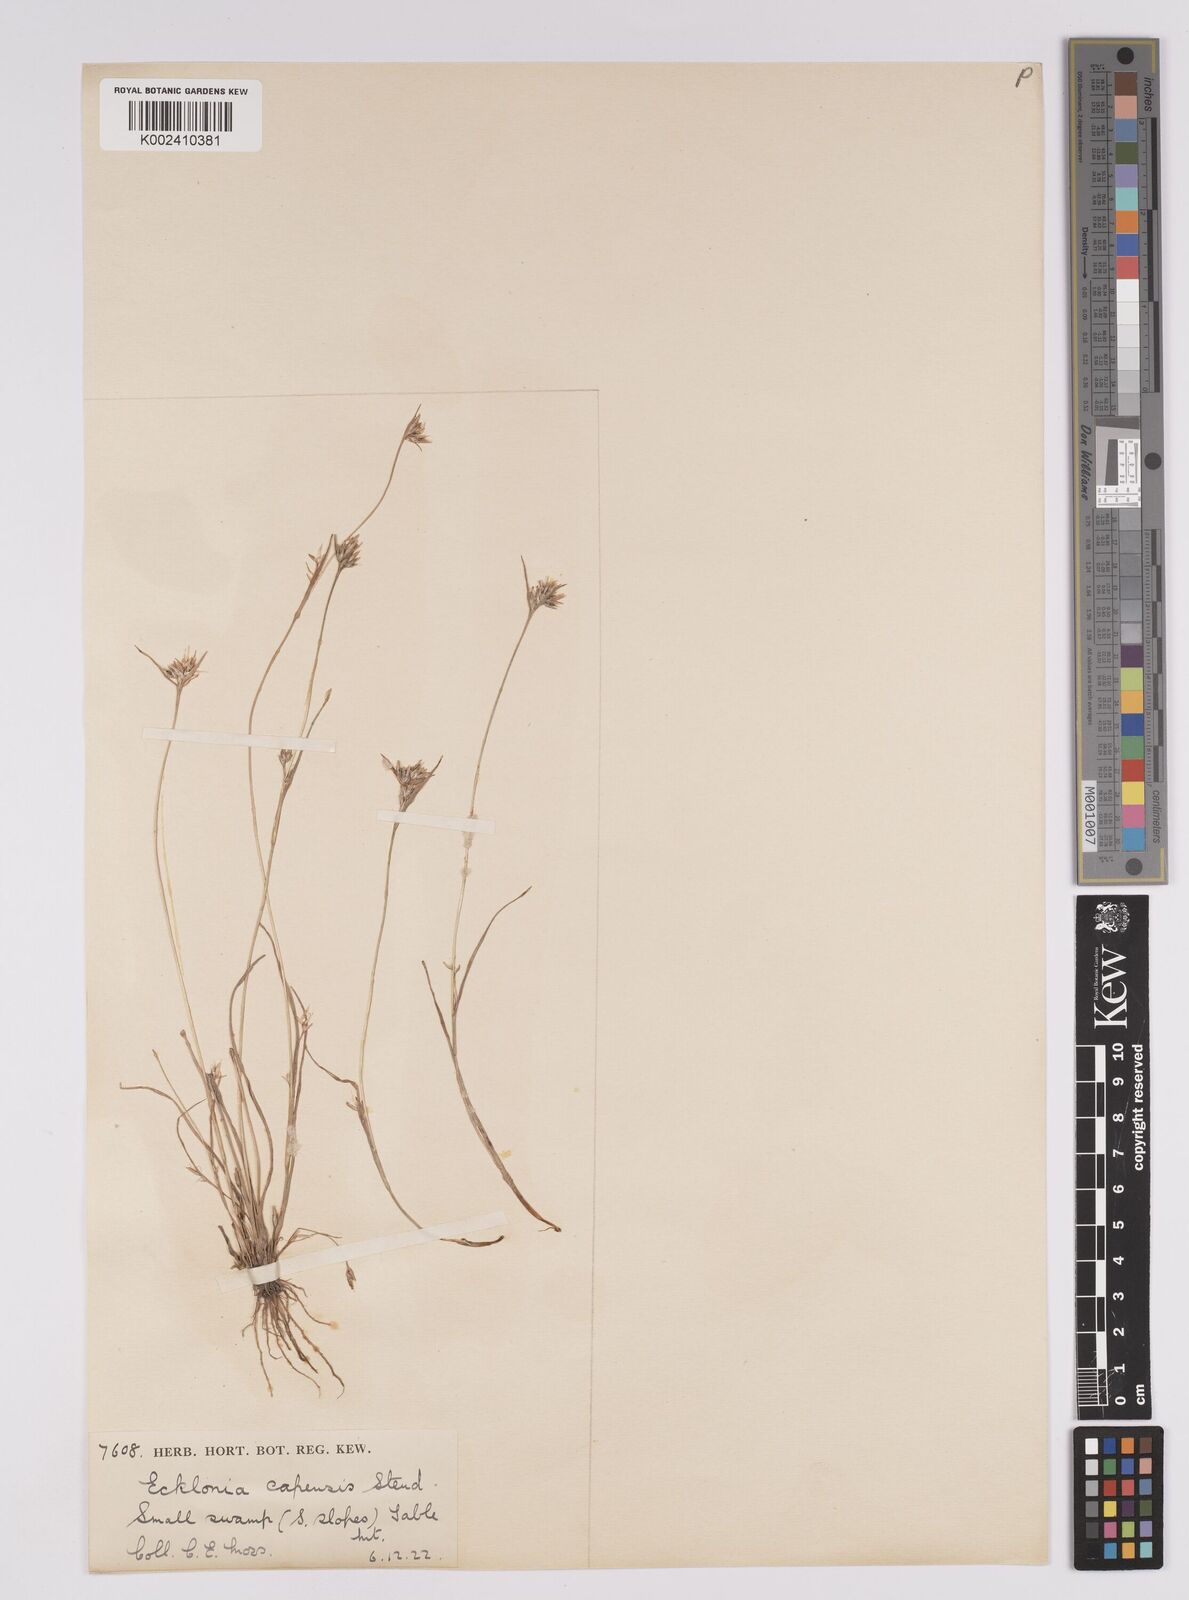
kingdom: Plantae
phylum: Tracheophyta
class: Liliopsida
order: Poales
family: Cyperaceae
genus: Trianoptiles
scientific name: Trianoptiles capensis
